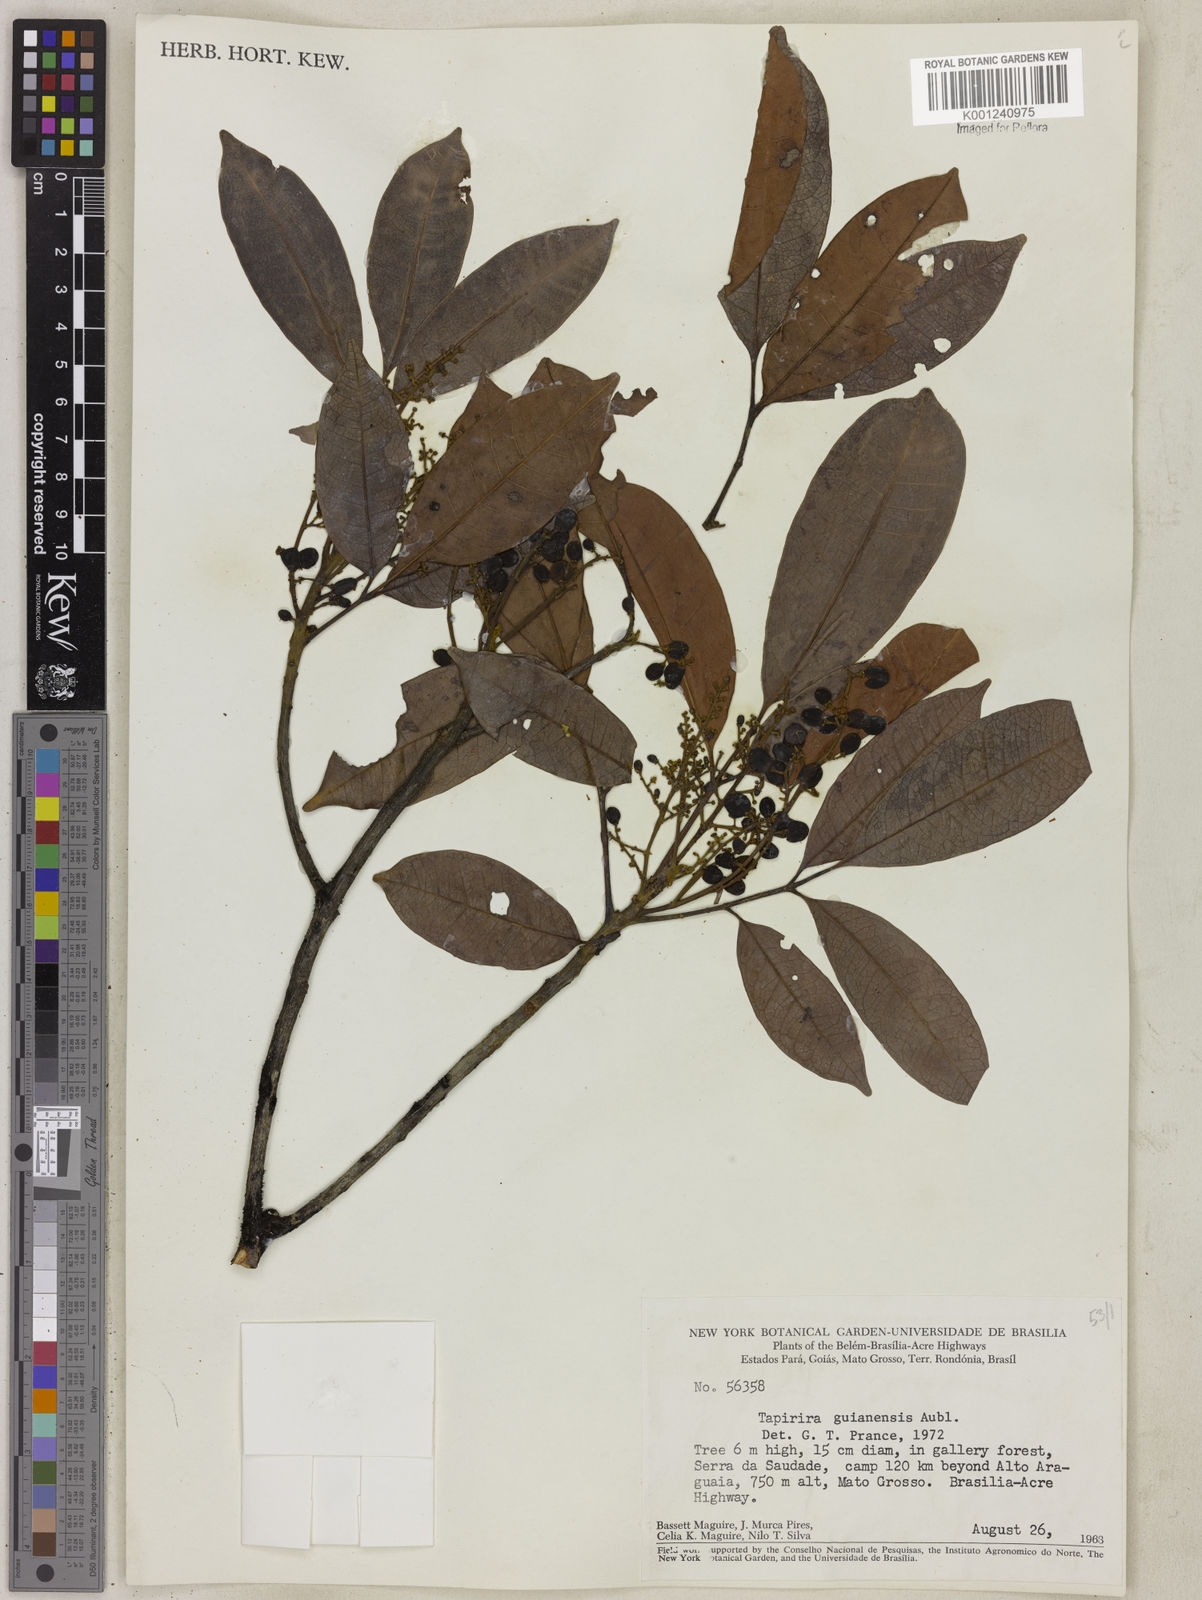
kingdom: Plantae
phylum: Tracheophyta
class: Magnoliopsida
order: Sapindales
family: Anacardiaceae
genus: Tapirira
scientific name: Tapirira guianensis
